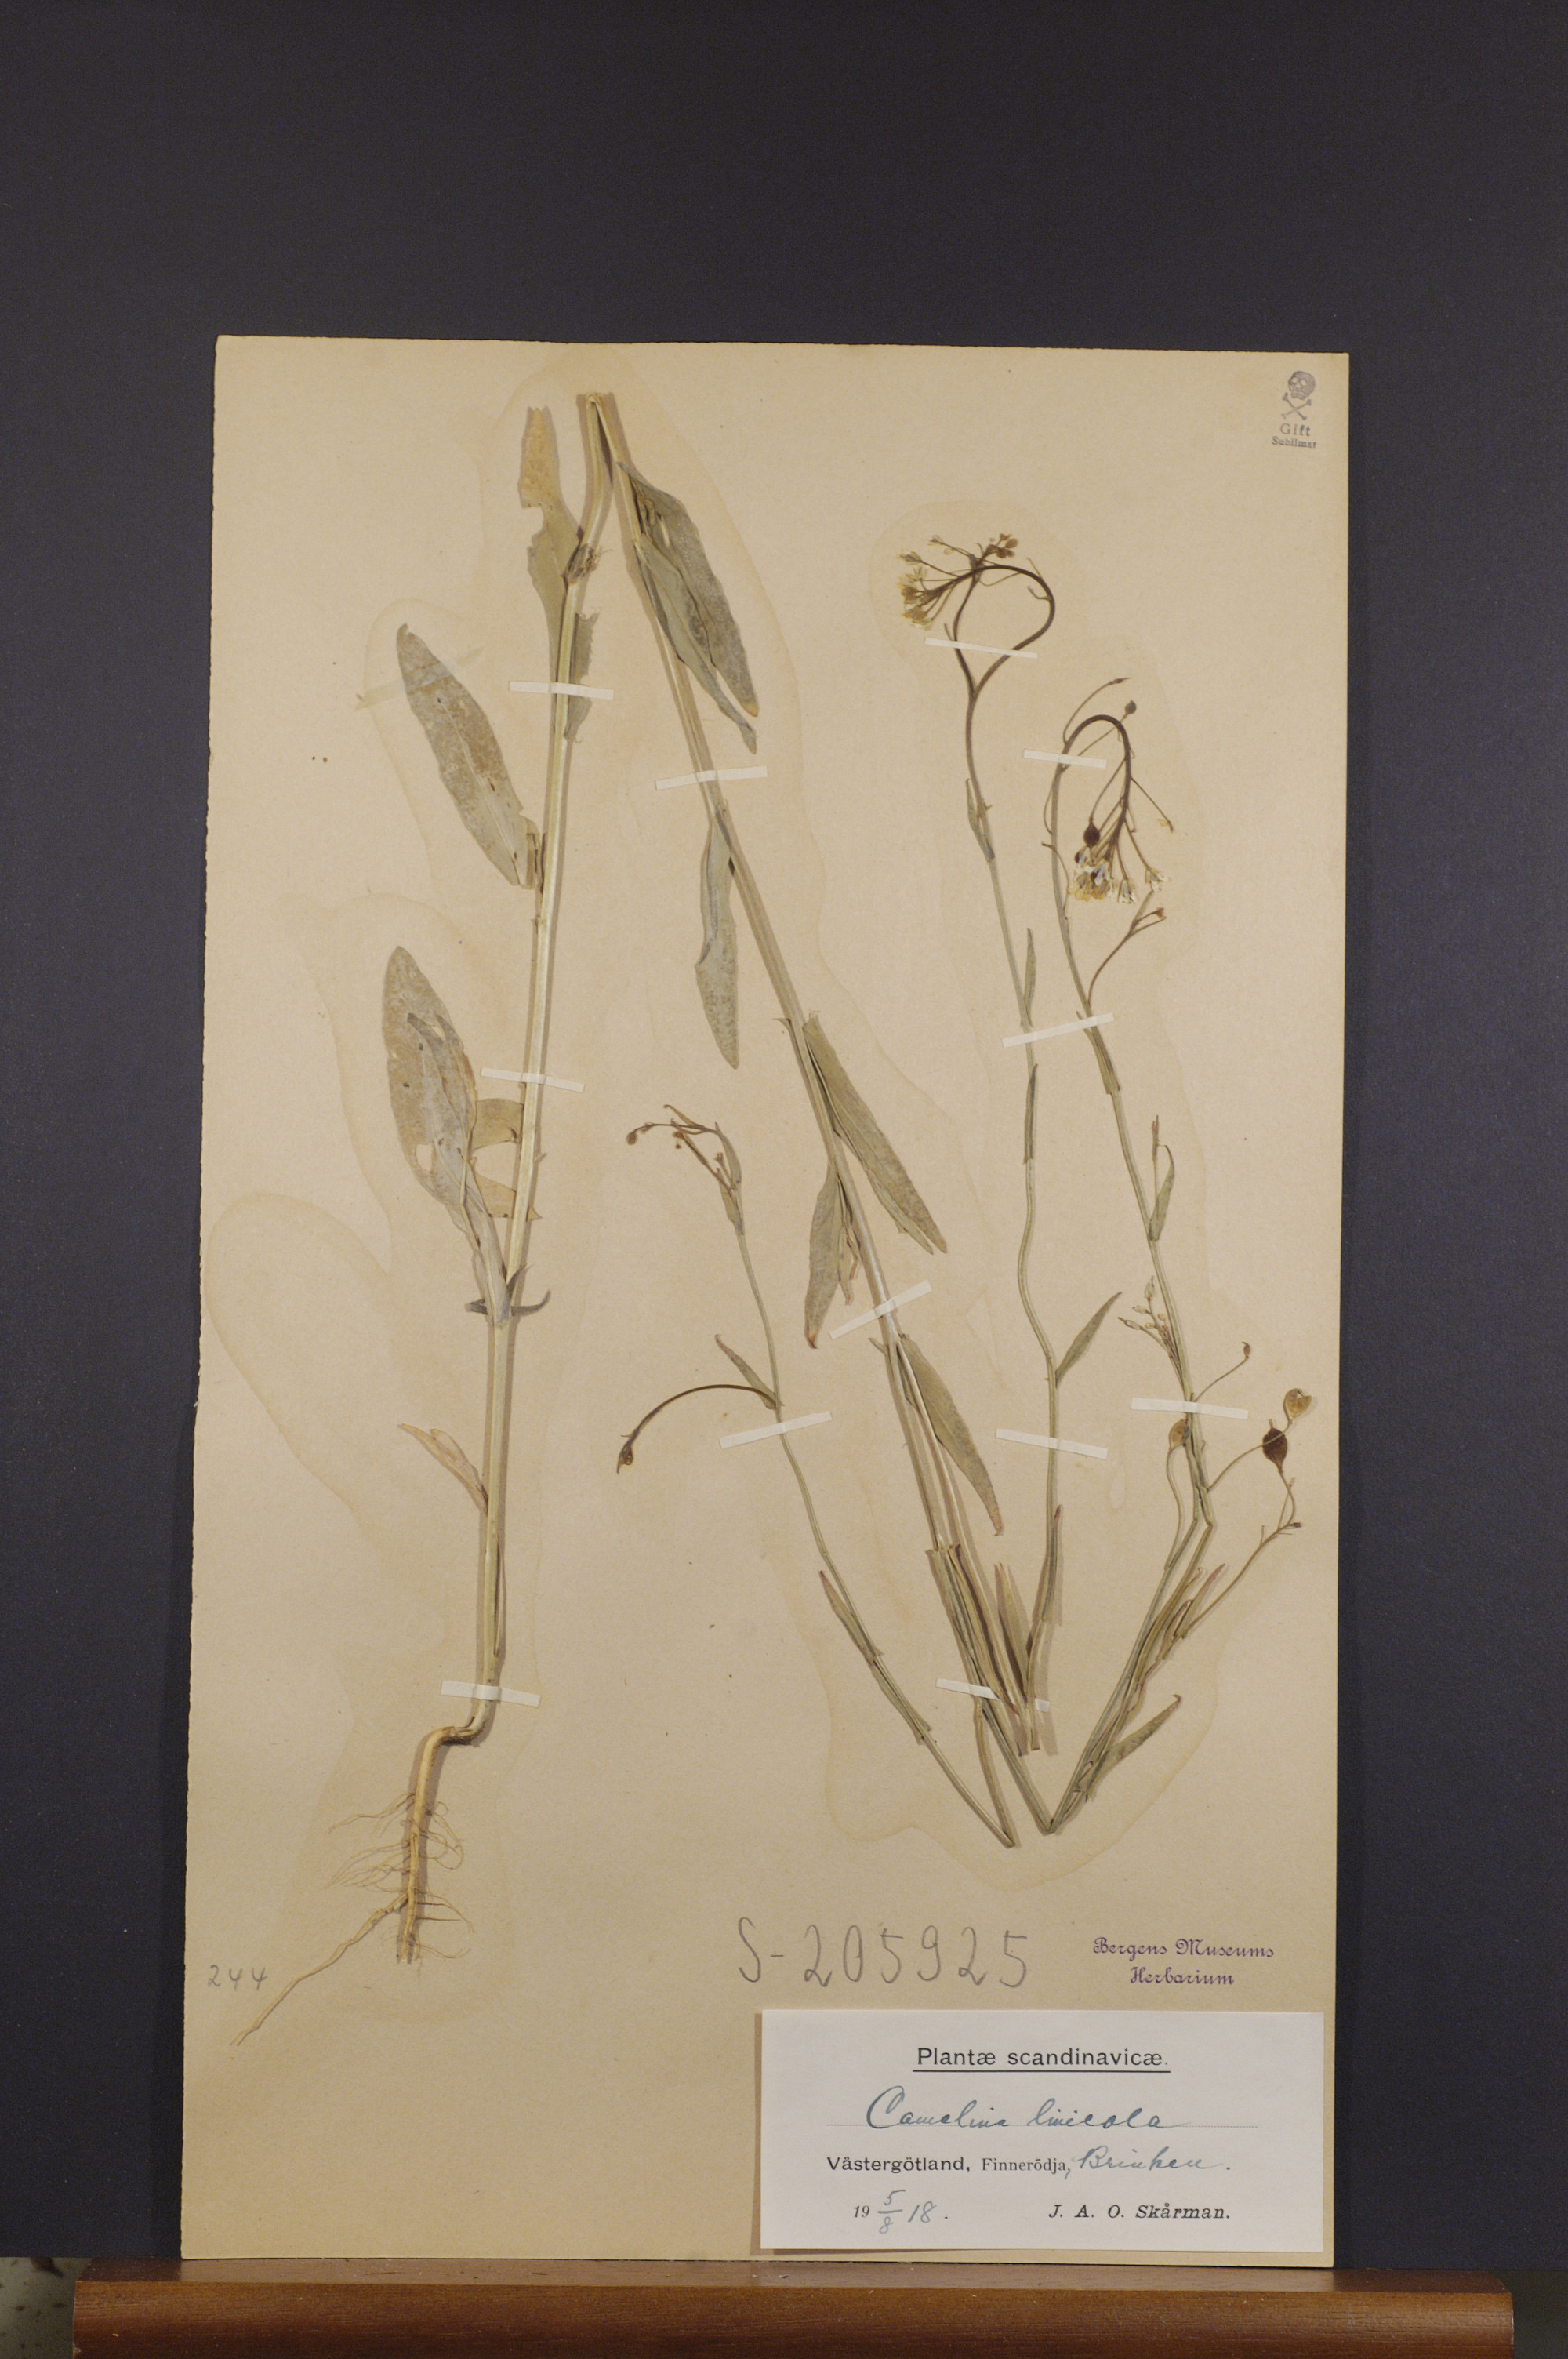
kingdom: Plantae
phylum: Tracheophyta
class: Magnoliopsida
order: Brassicales
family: Brassicaceae
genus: Camelina
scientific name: Camelina alyssum
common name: Gold-of-pleasure
